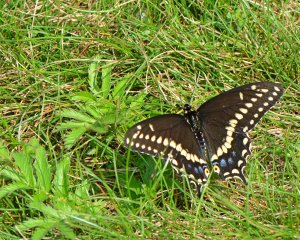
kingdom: Animalia
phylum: Arthropoda
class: Insecta
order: Lepidoptera
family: Papilionidae
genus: Papilio
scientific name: Papilio polyxenes
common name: Black Swallowtail
